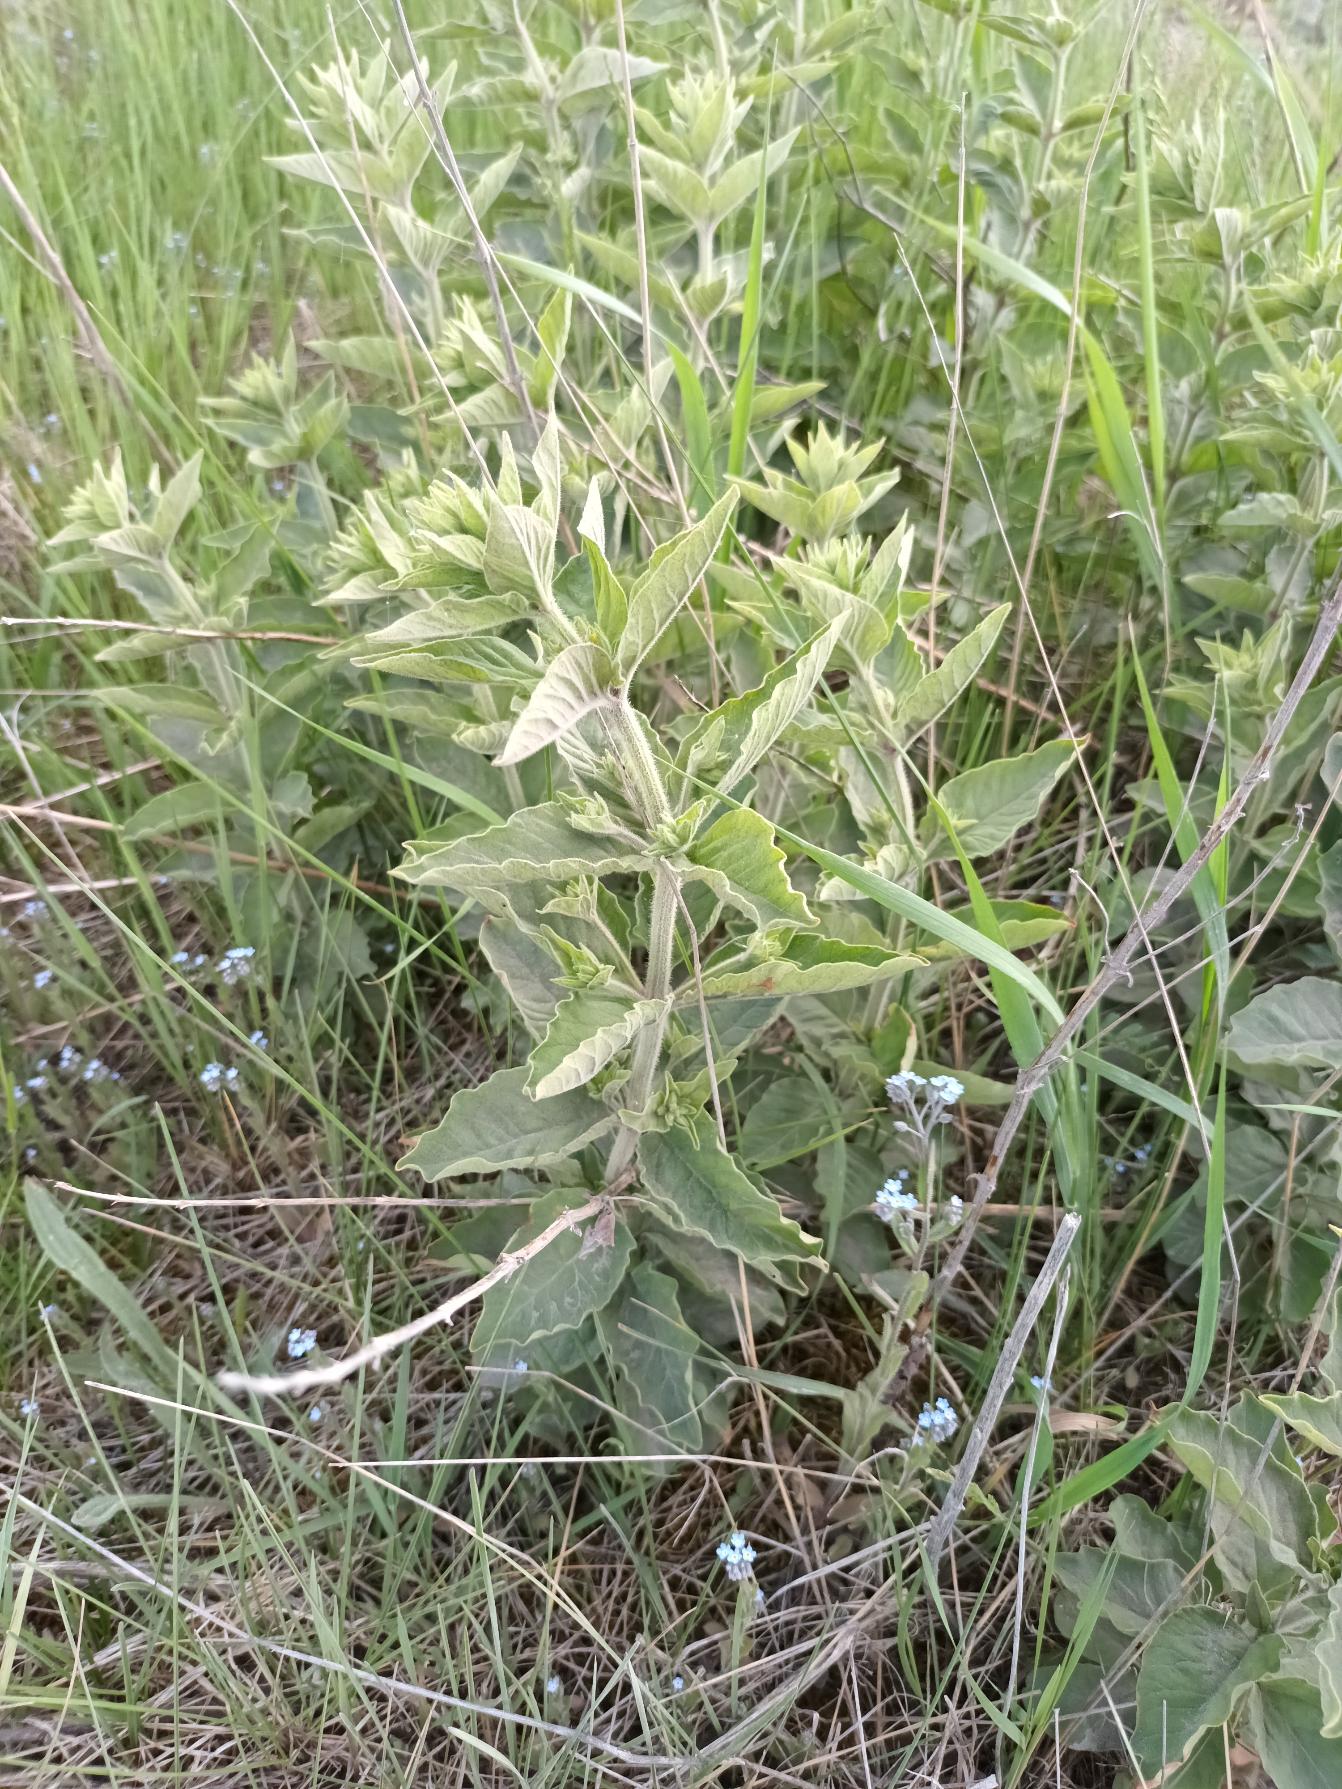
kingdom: Plantae
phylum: Tracheophyta
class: Magnoliopsida
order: Ericales
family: Primulaceae
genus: Lysimachia
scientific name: Lysimachia punctata
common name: Prikbladet fredløs
